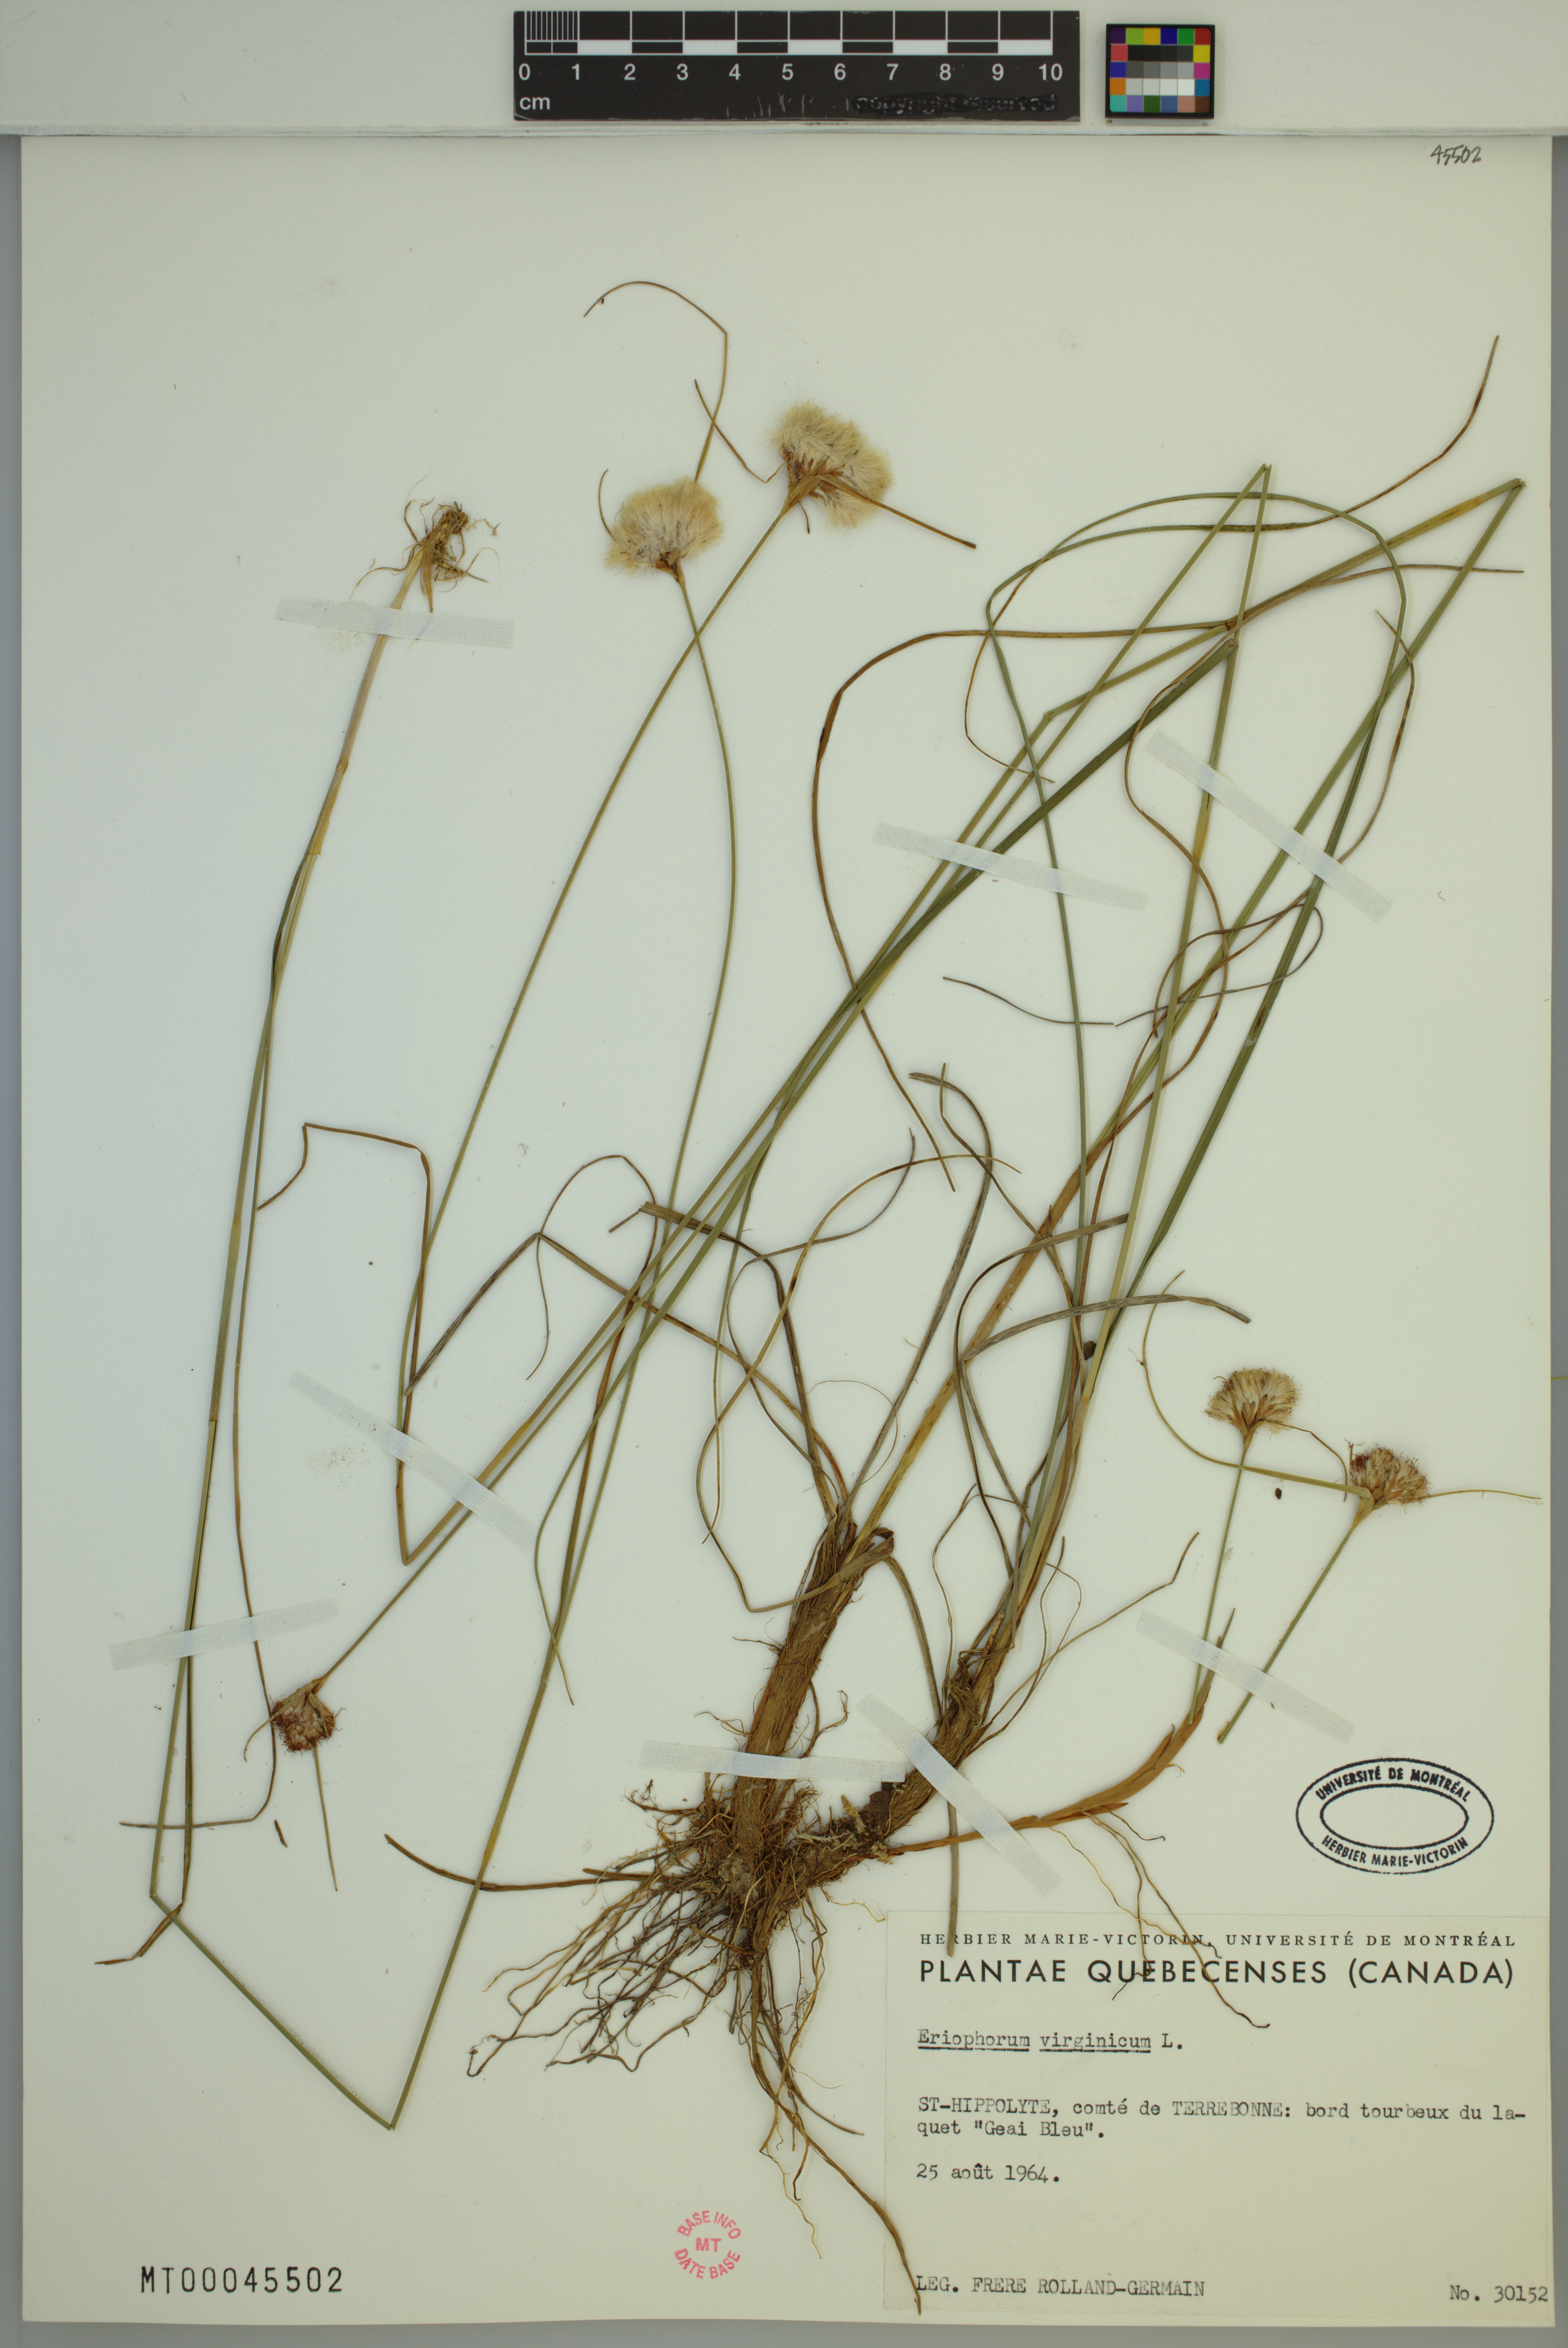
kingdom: Plantae
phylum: Tracheophyta
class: Liliopsida
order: Poales
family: Cyperaceae
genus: Eriophorum
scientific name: Eriophorum virginicum
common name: Tawny cottongrass
